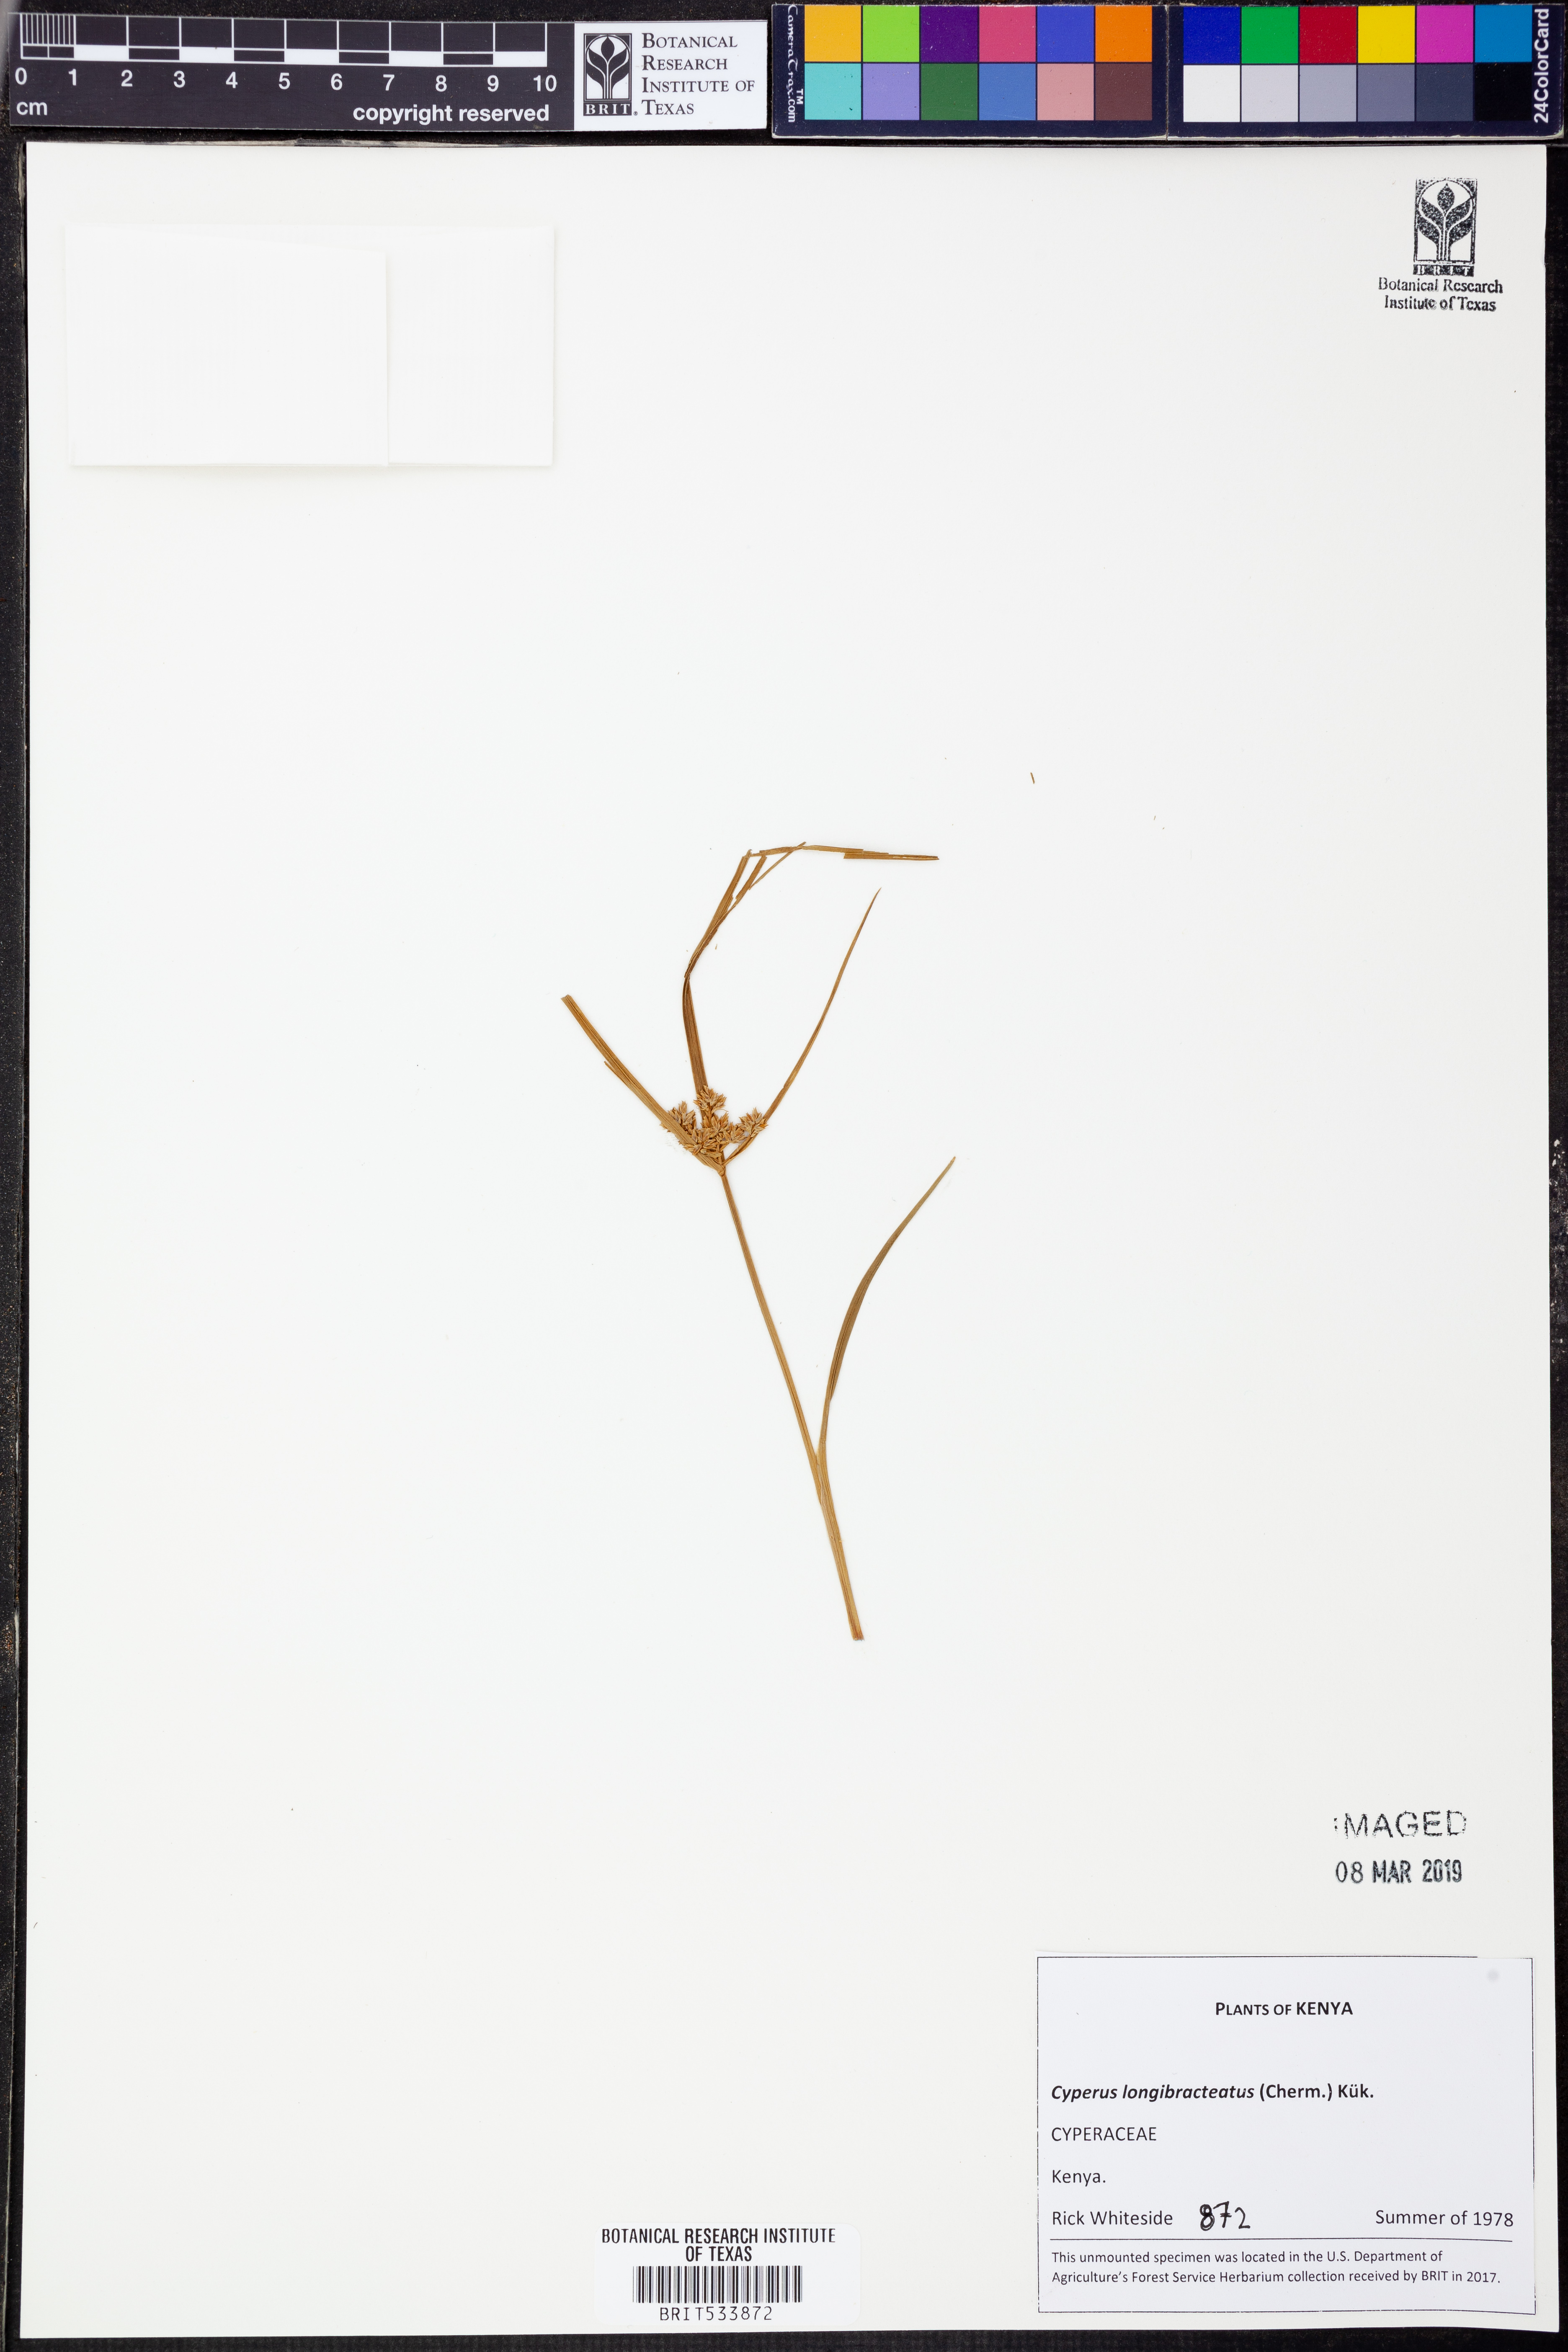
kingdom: Plantae
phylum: Tracheophyta
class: Liliopsida
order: Poales
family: Cyperaceae
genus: Cyperus
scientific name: Cyperus distans
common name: Slender cyperus
